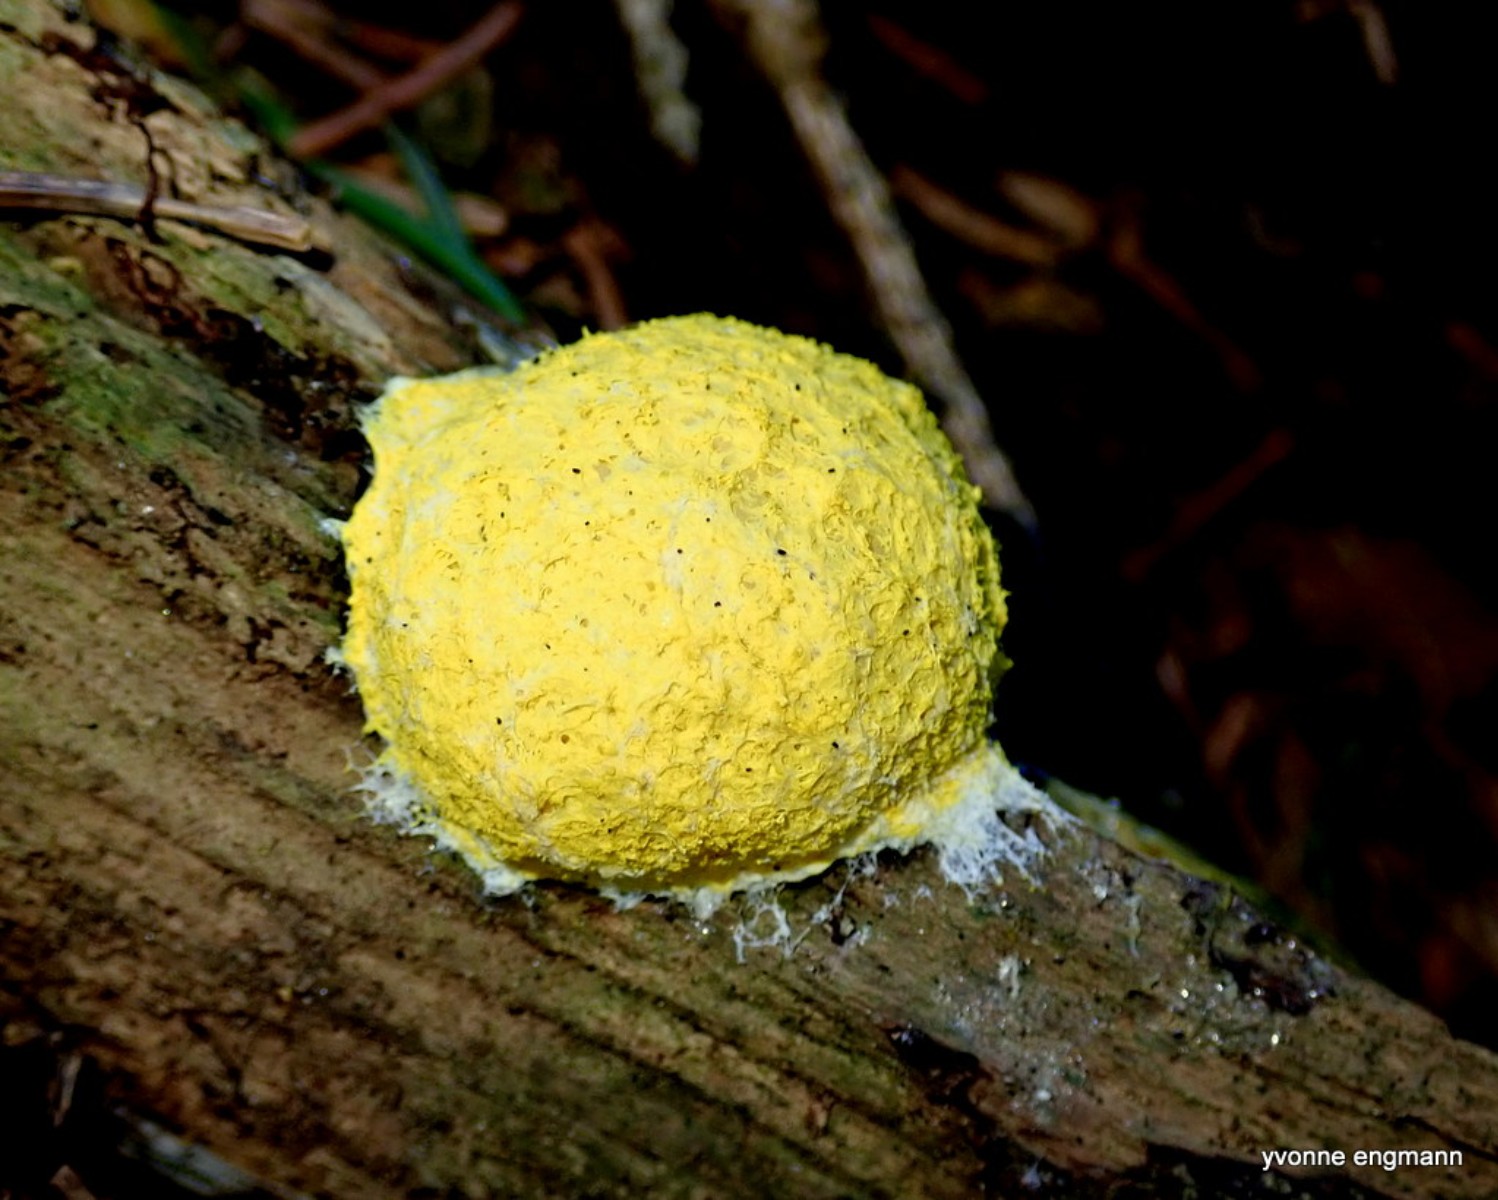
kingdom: Protozoa
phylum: Mycetozoa
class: Myxomycetes
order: Physarales
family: Physaraceae
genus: Fuligo
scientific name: Fuligo septica
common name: gul troldsmør
